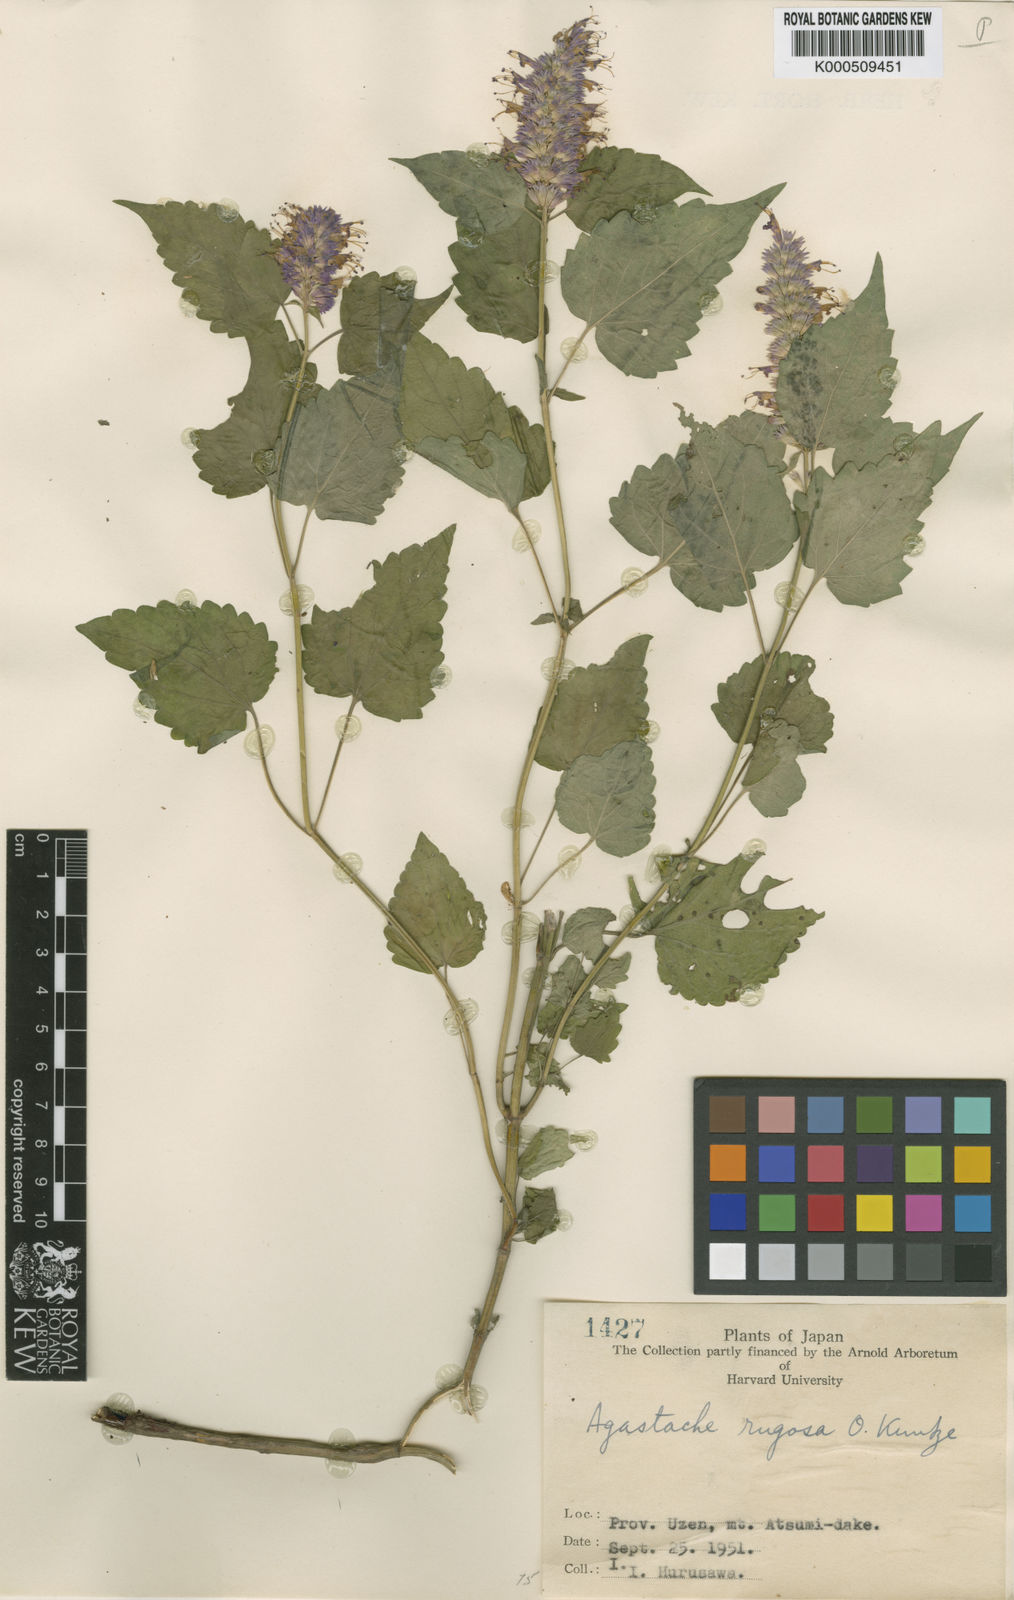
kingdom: Plantae
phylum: Tracheophyta
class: Magnoliopsida
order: Lamiales
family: Lamiaceae
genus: Agastache
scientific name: Agastache rugosa
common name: Mint
